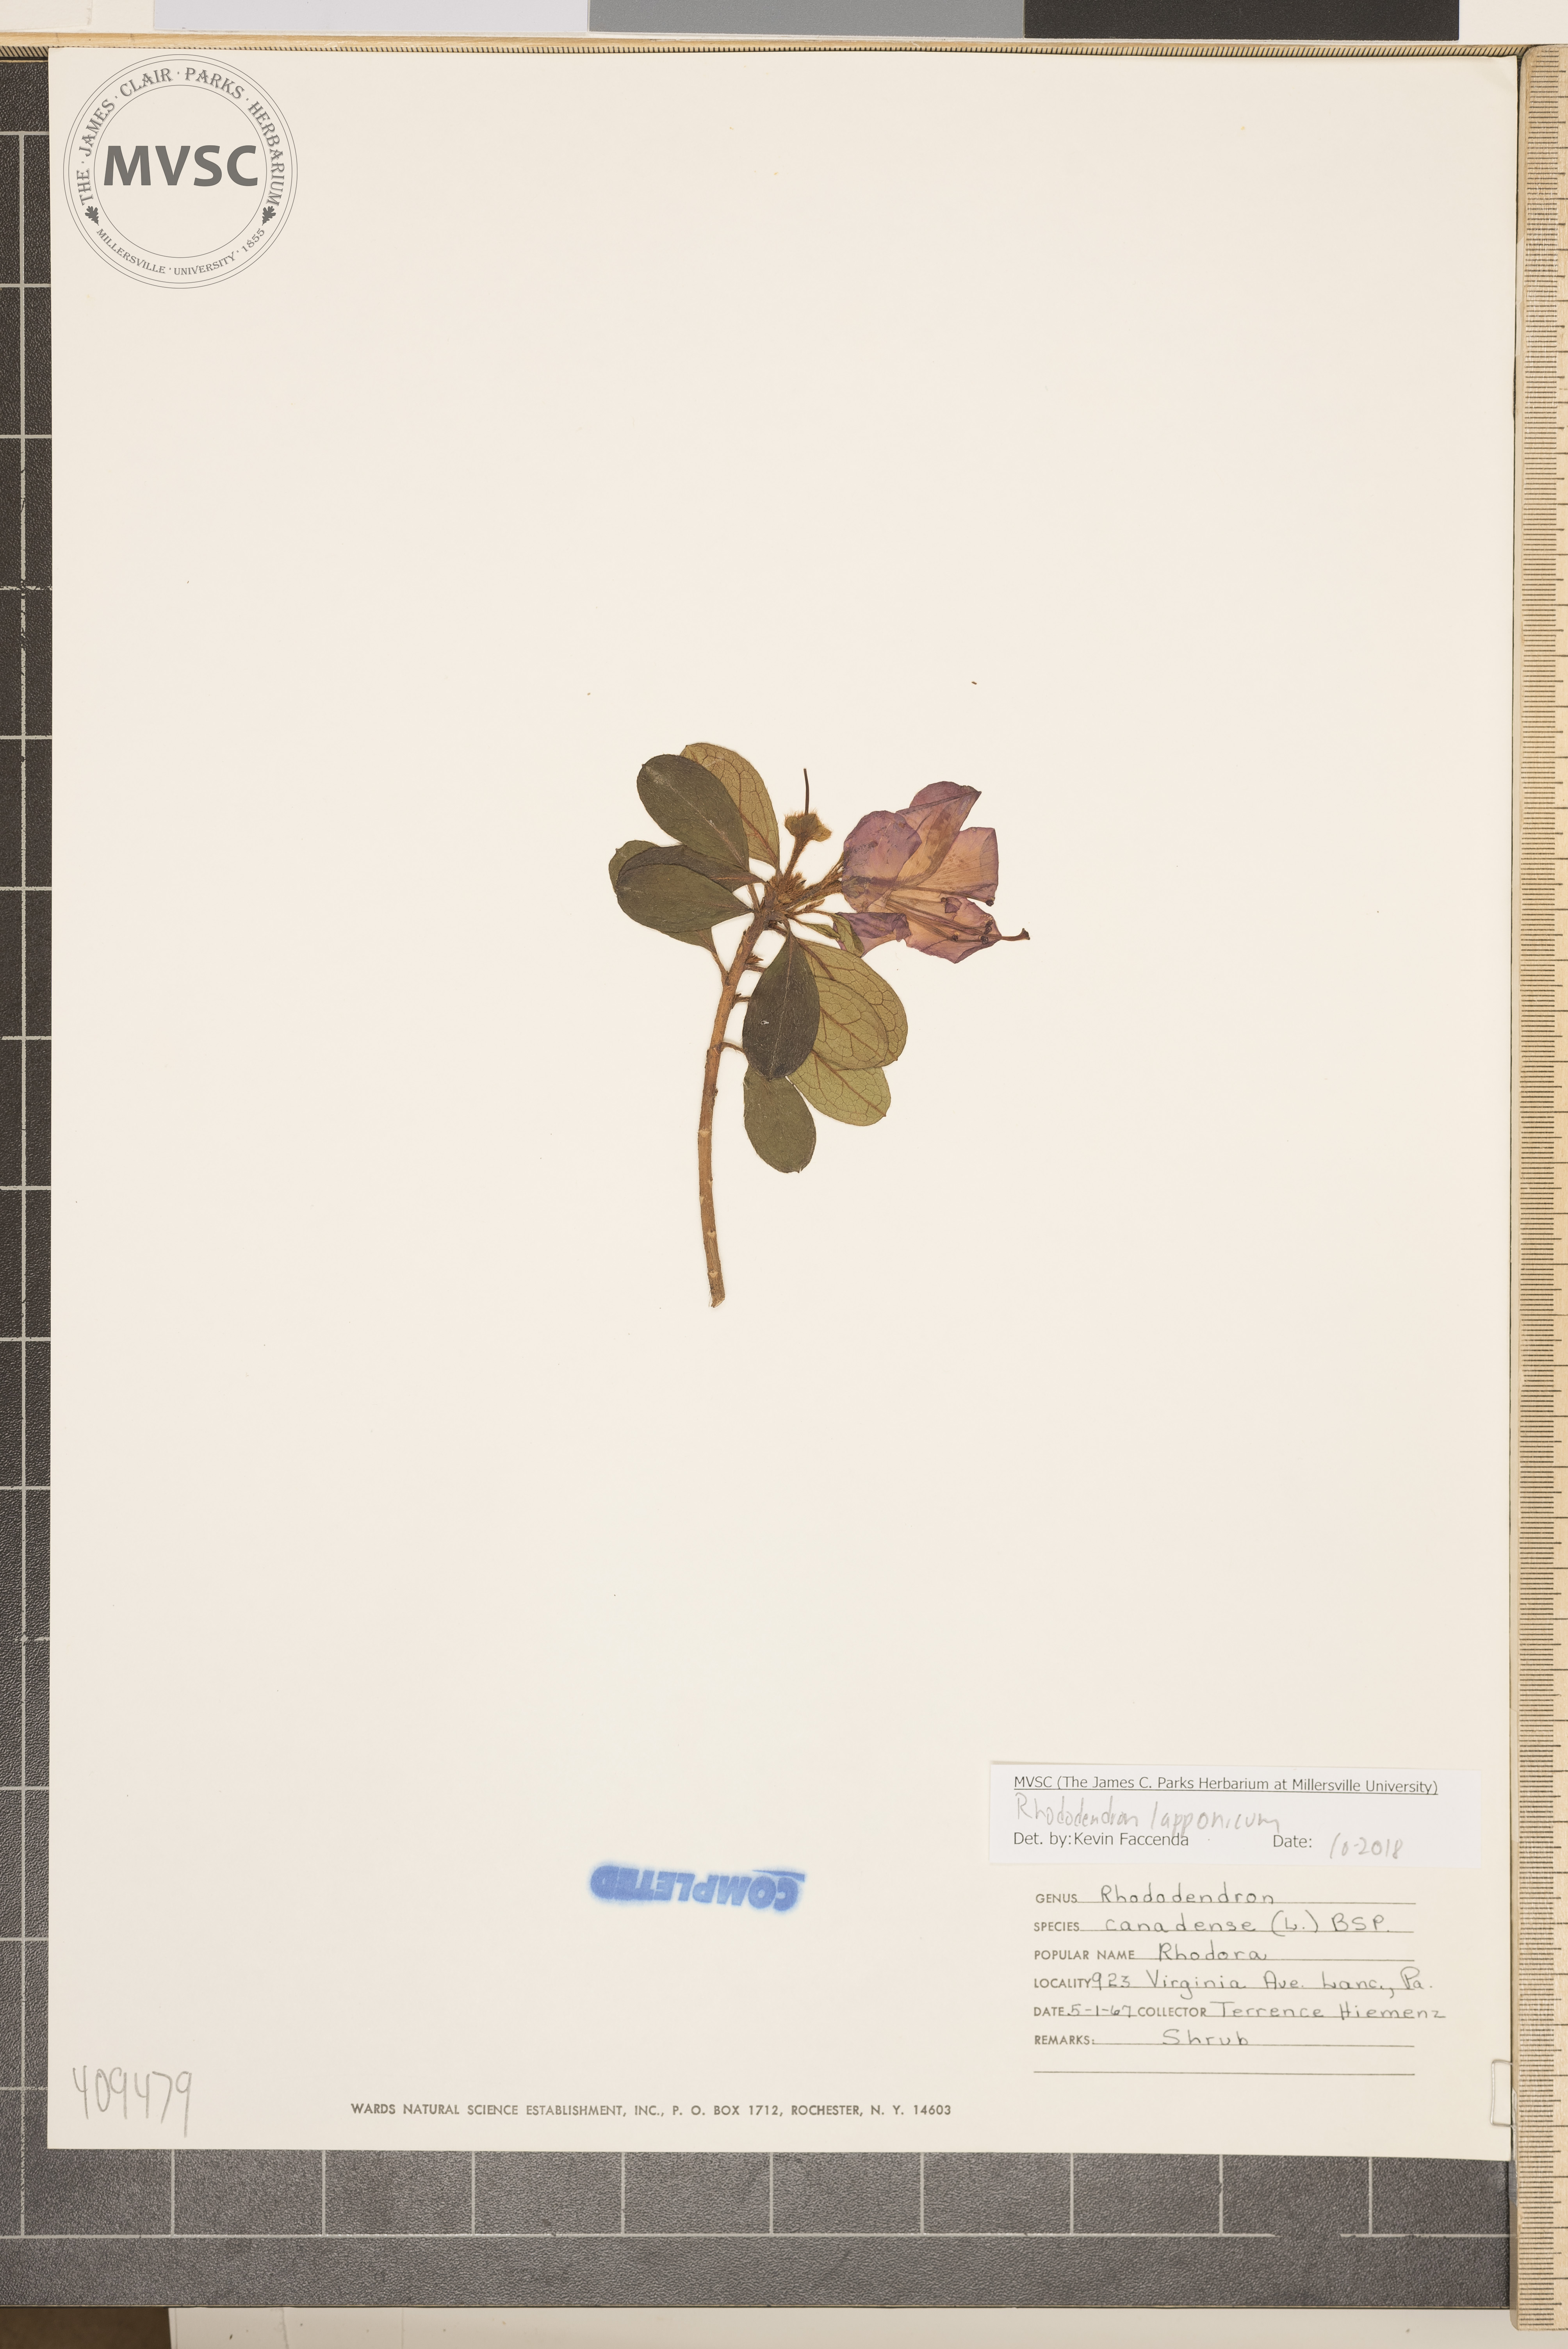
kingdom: Plantae
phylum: Tracheophyta
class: Magnoliopsida
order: Ericales
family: Ericaceae
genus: Rhododendron
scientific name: Rhododendron lapponicum
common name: Lapland rhododendron
